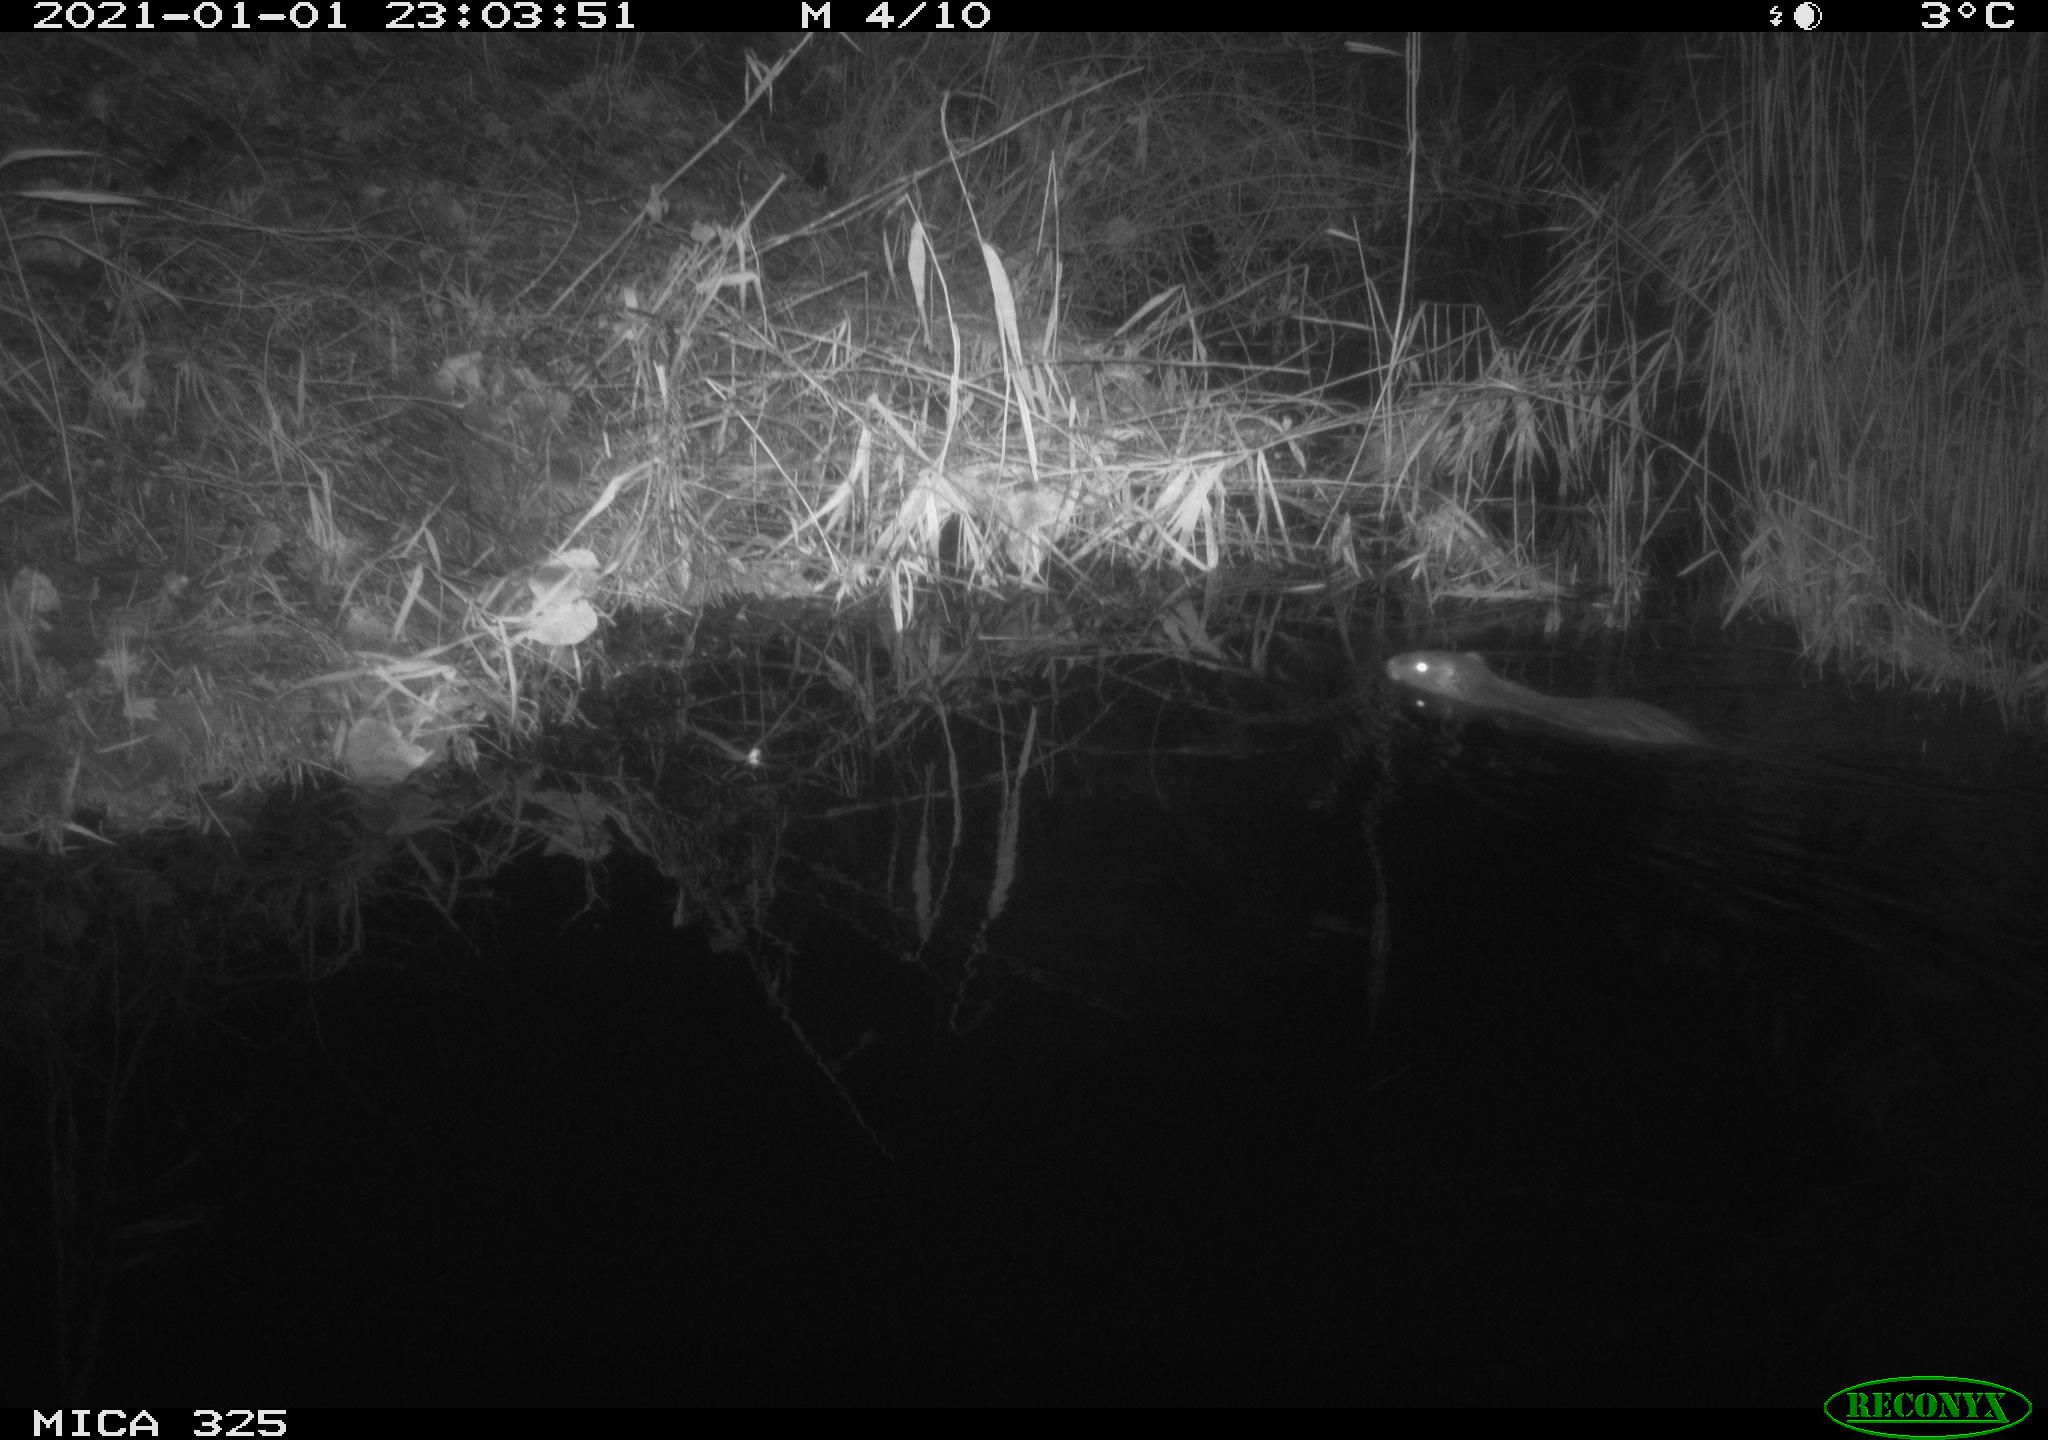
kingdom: Animalia
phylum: Chordata
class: Mammalia
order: Rodentia
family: Myocastoridae
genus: Myocastor
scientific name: Myocastor coypus
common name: Coypu
